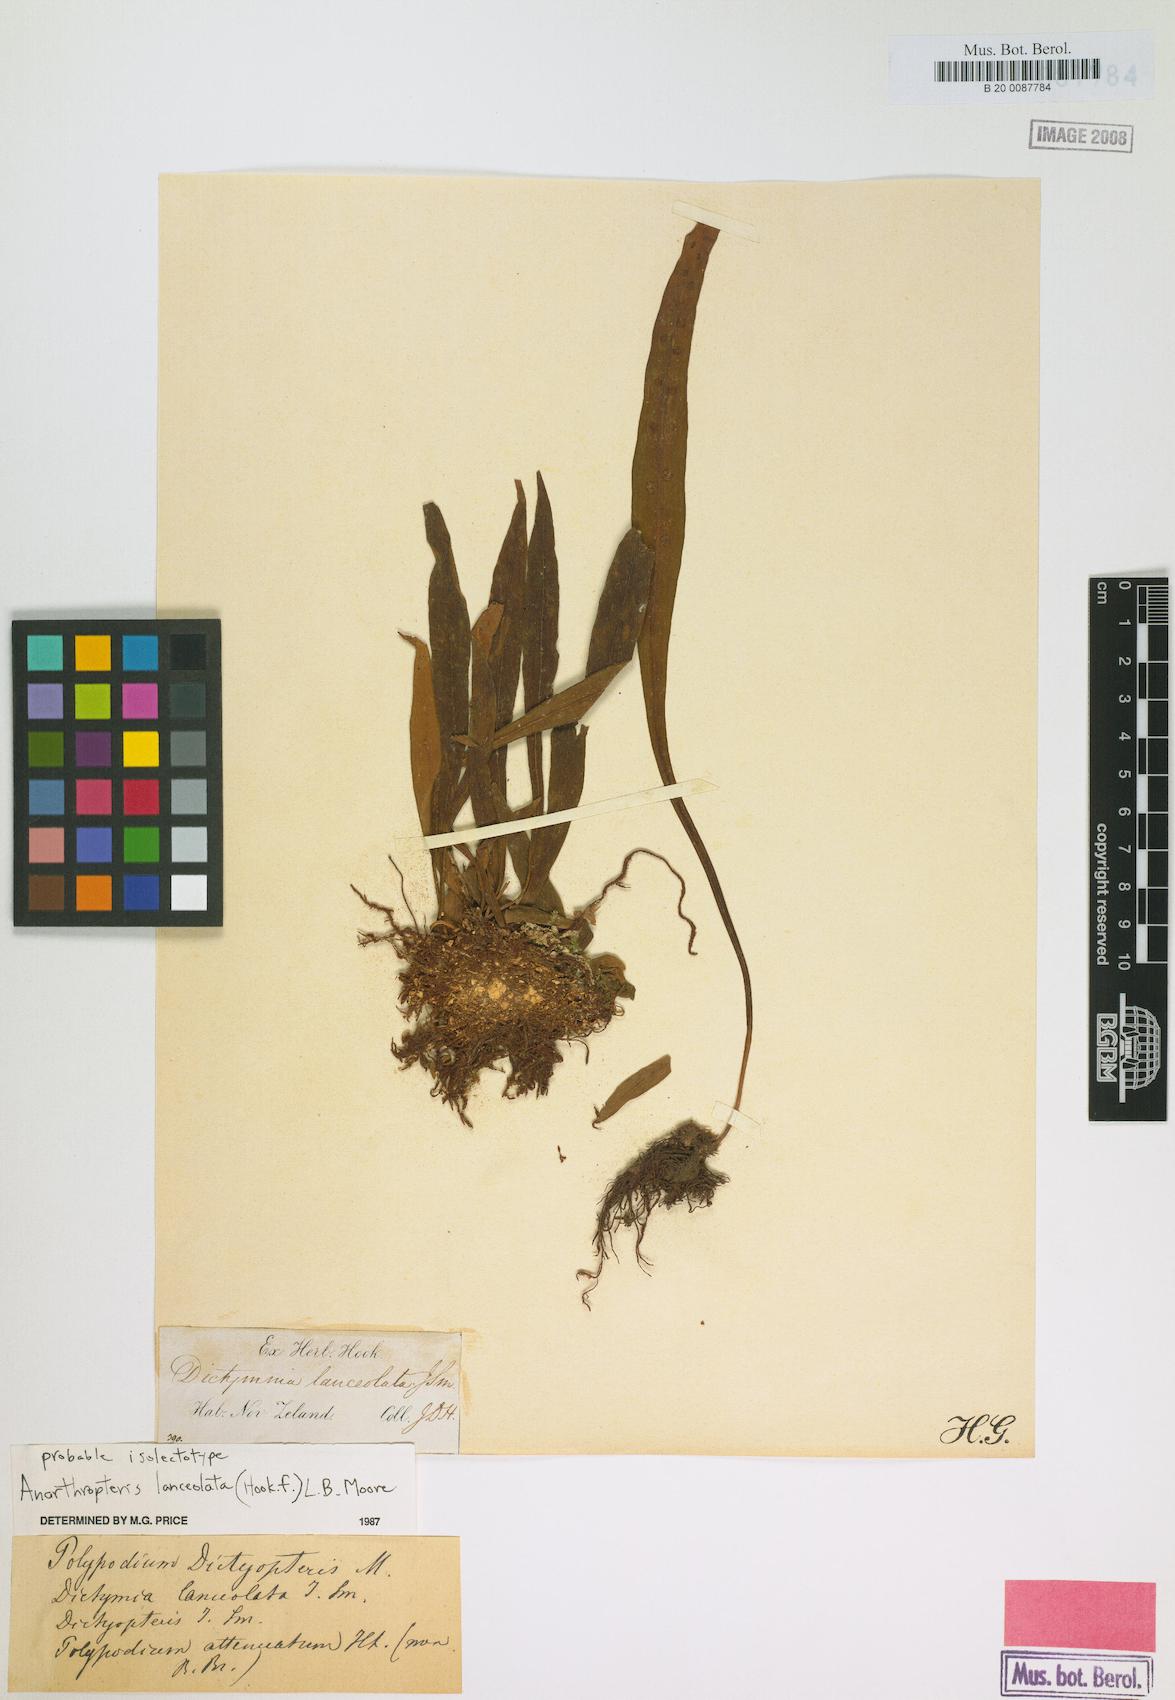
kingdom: Plantae
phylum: Tracheophyta
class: Polypodiopsida
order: Polypodiales
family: Polypodiaceae
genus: Loxogramme
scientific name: Loxogramme dictyopteris
